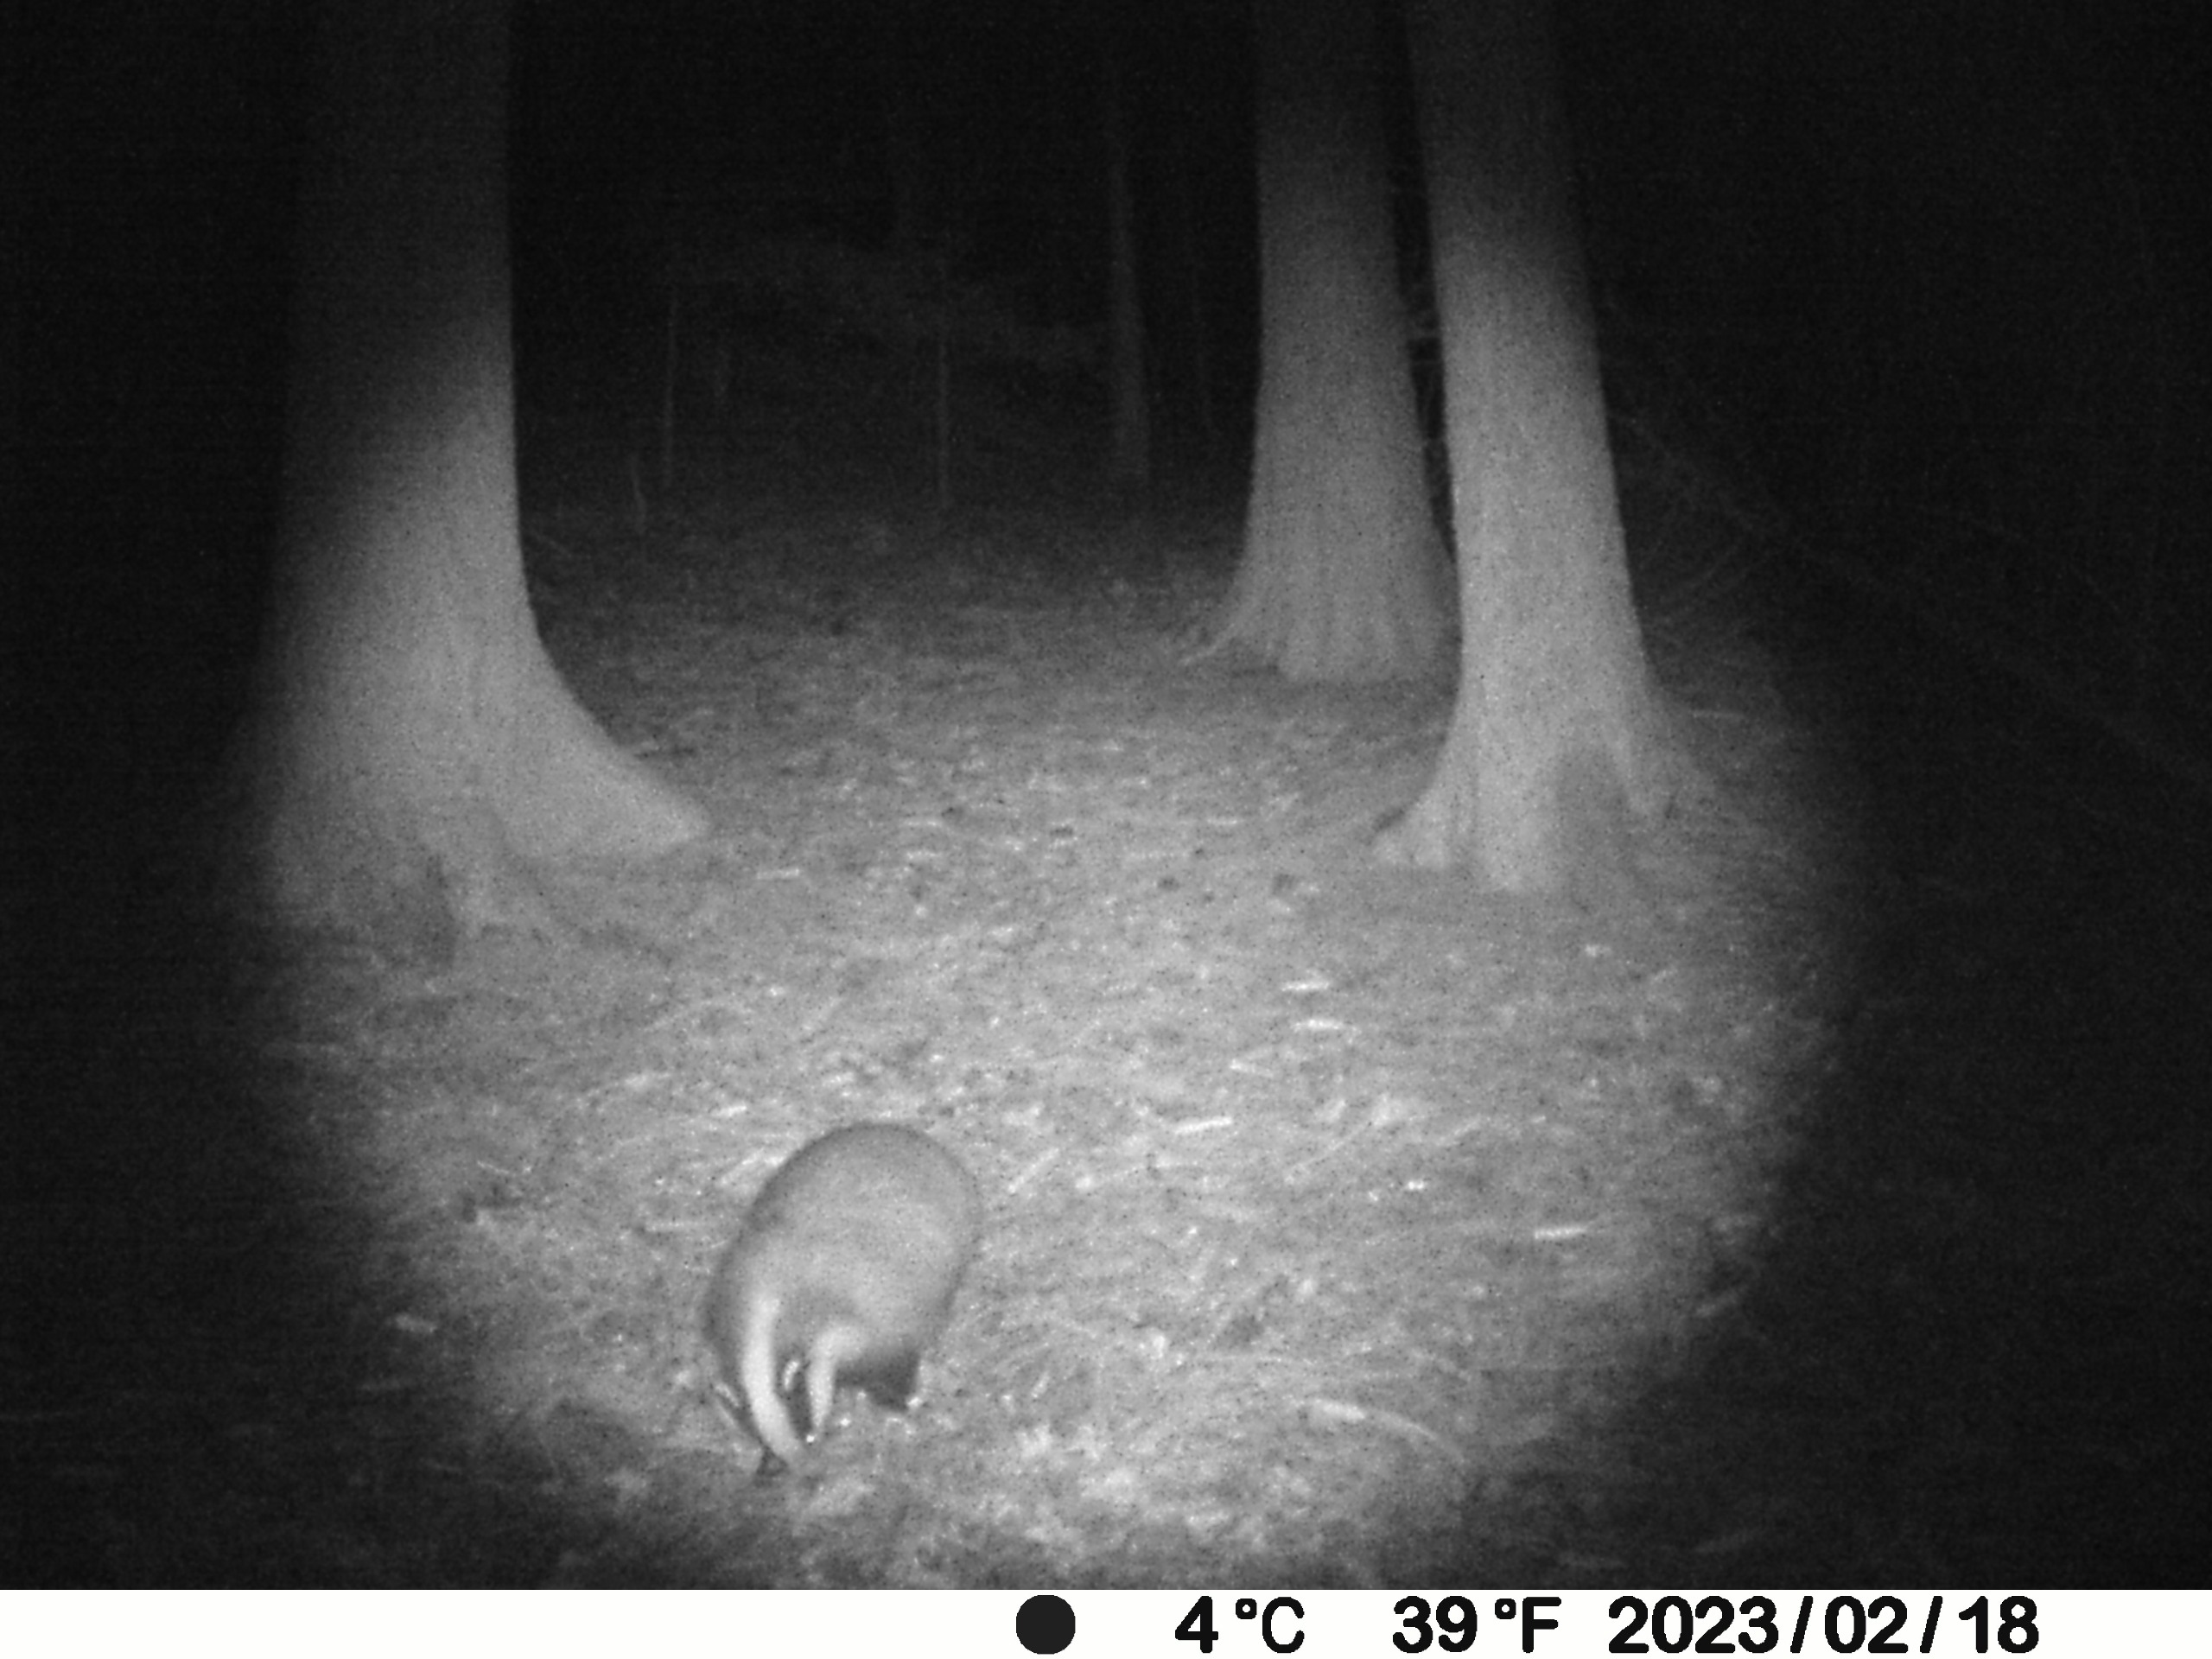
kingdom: Animalia
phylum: Chordata
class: Mammalia
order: Carnivora
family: Mustelidae
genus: Meles
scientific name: Meles meles
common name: Grævling
